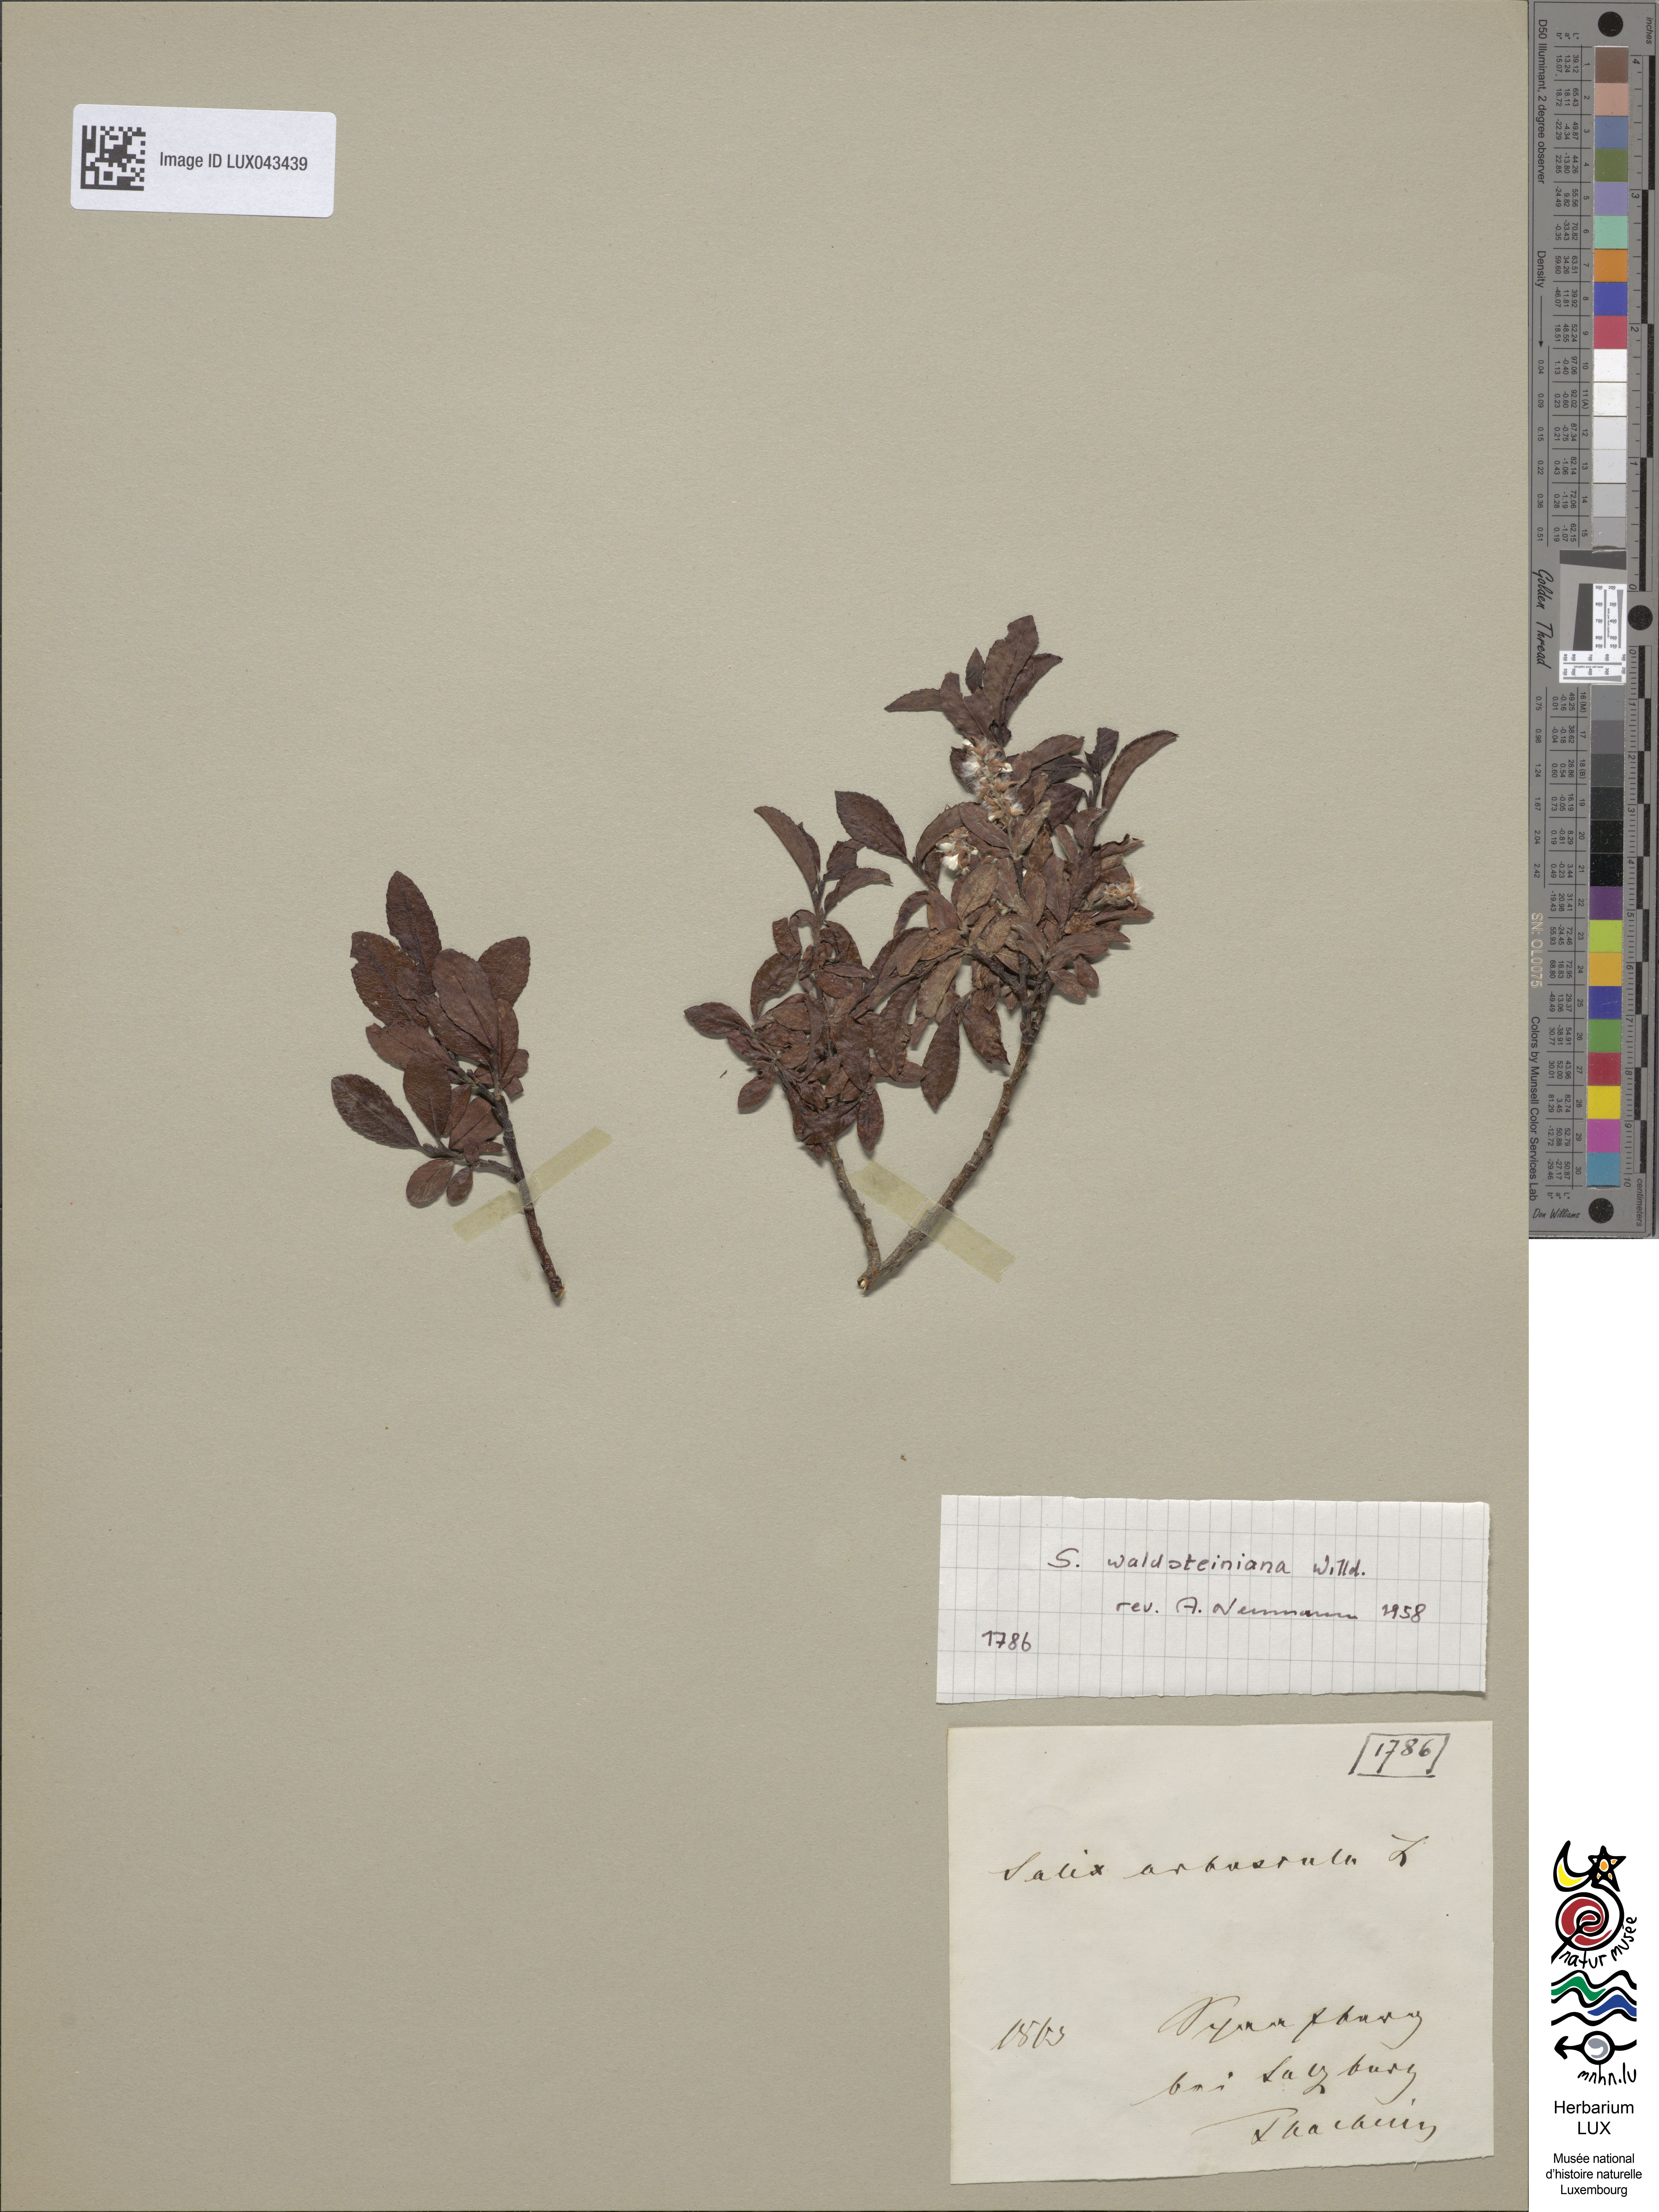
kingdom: Plantae
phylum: Tracheophyta
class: Magnoliopsida
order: Malpighiales
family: Salicaceae
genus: Salix
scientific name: Salix arbuscula
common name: Mountain willow
